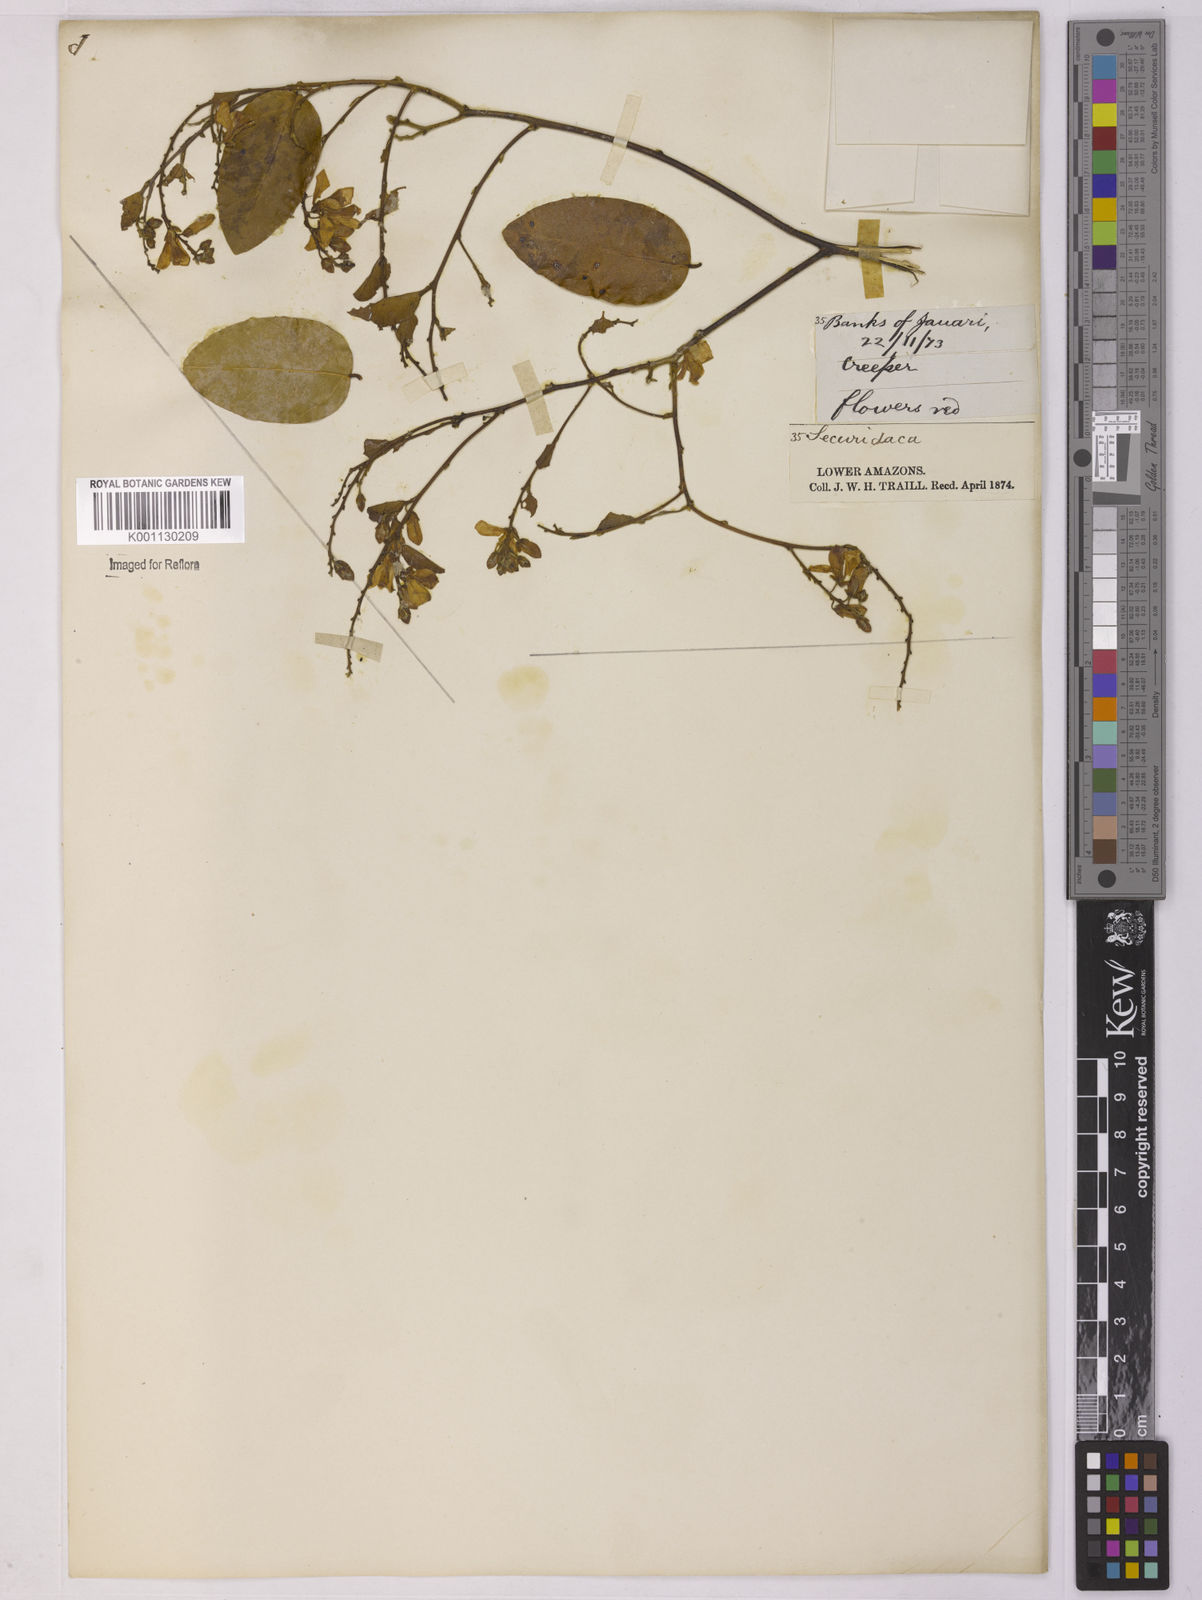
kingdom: Plantae
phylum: Tracheophyta
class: Magnoliopsida
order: Fabales
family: Polygalaceae
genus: Securidaca
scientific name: Securidaca
